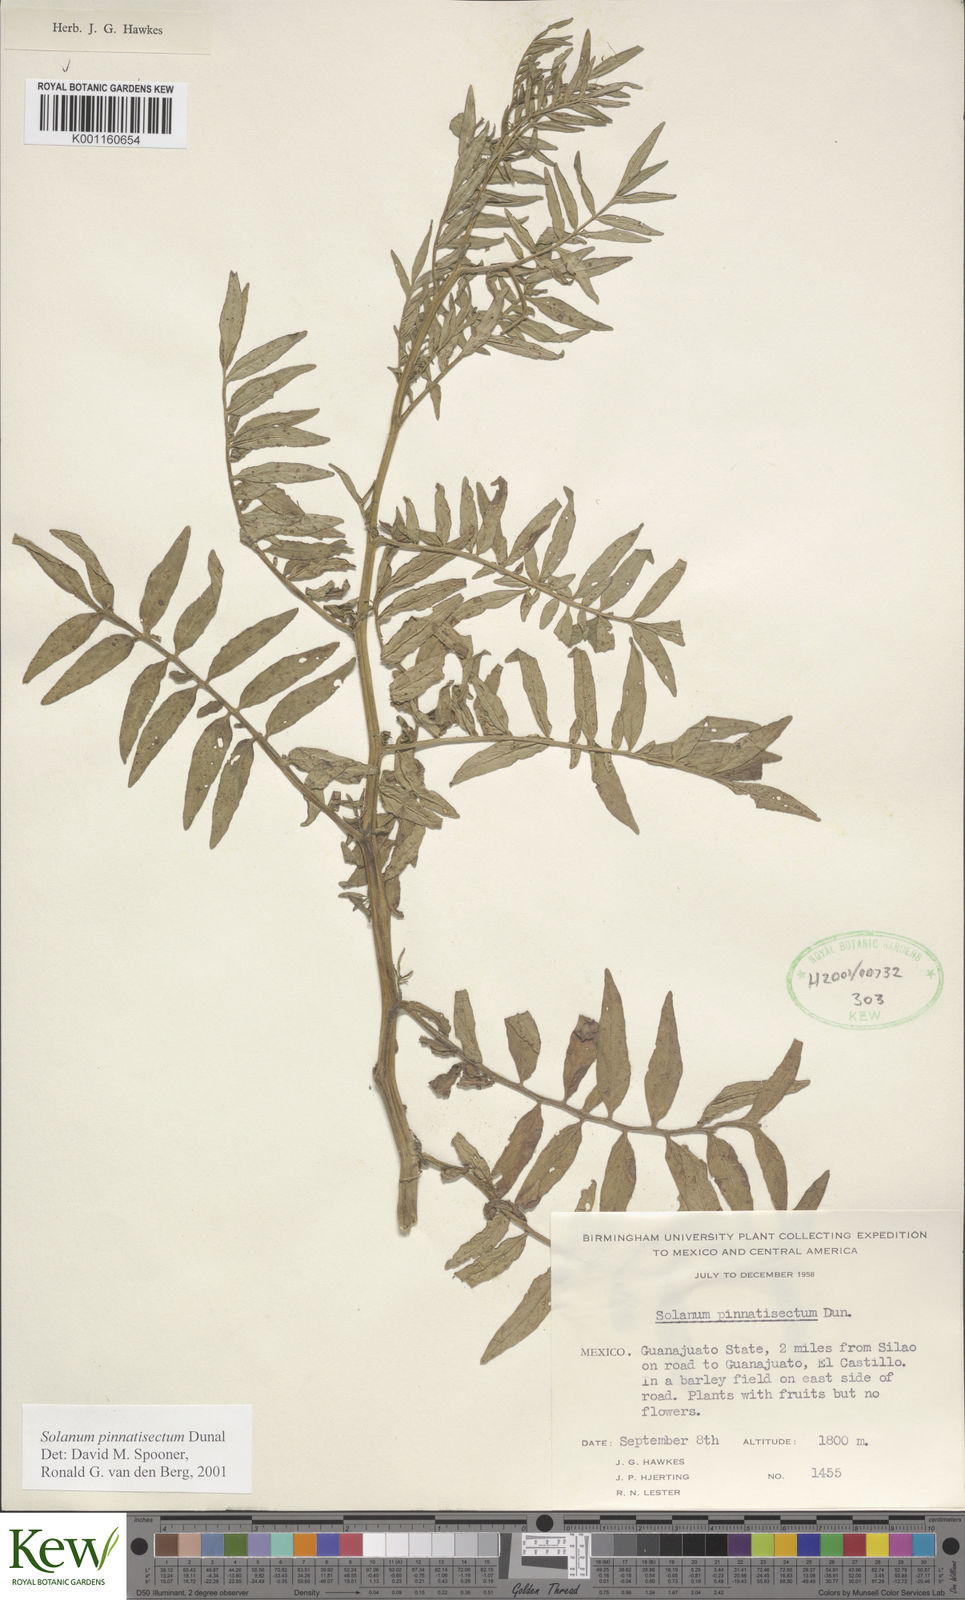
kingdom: Plantae
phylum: Tracheophyta
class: Magnoliopsida
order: Solanales
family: Solanaceae
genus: Solanum
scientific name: Solanum pinnatisectum
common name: Tansyleaf nightshade
